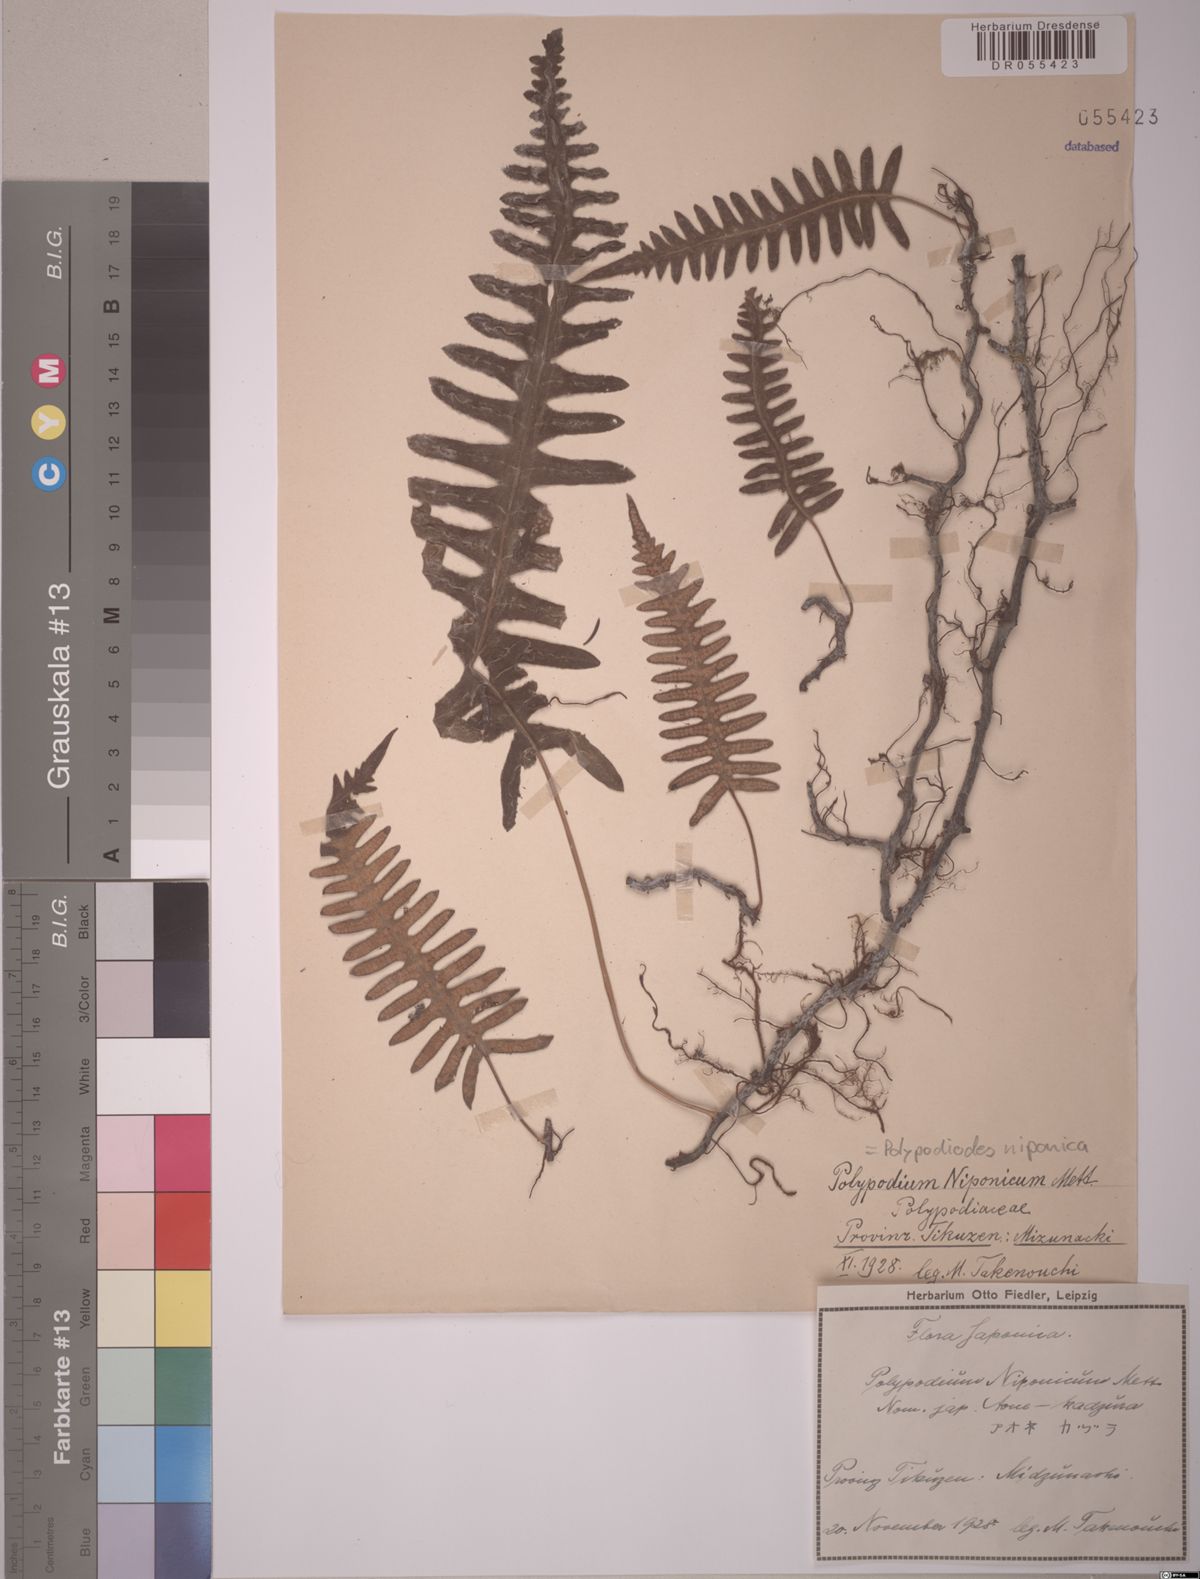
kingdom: Plantae
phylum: Tracheophyta
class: Polypodiopsida
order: Polypodiales
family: Polypodiaceae
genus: Goniophlebium
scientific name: Goniophlebium niponicum
